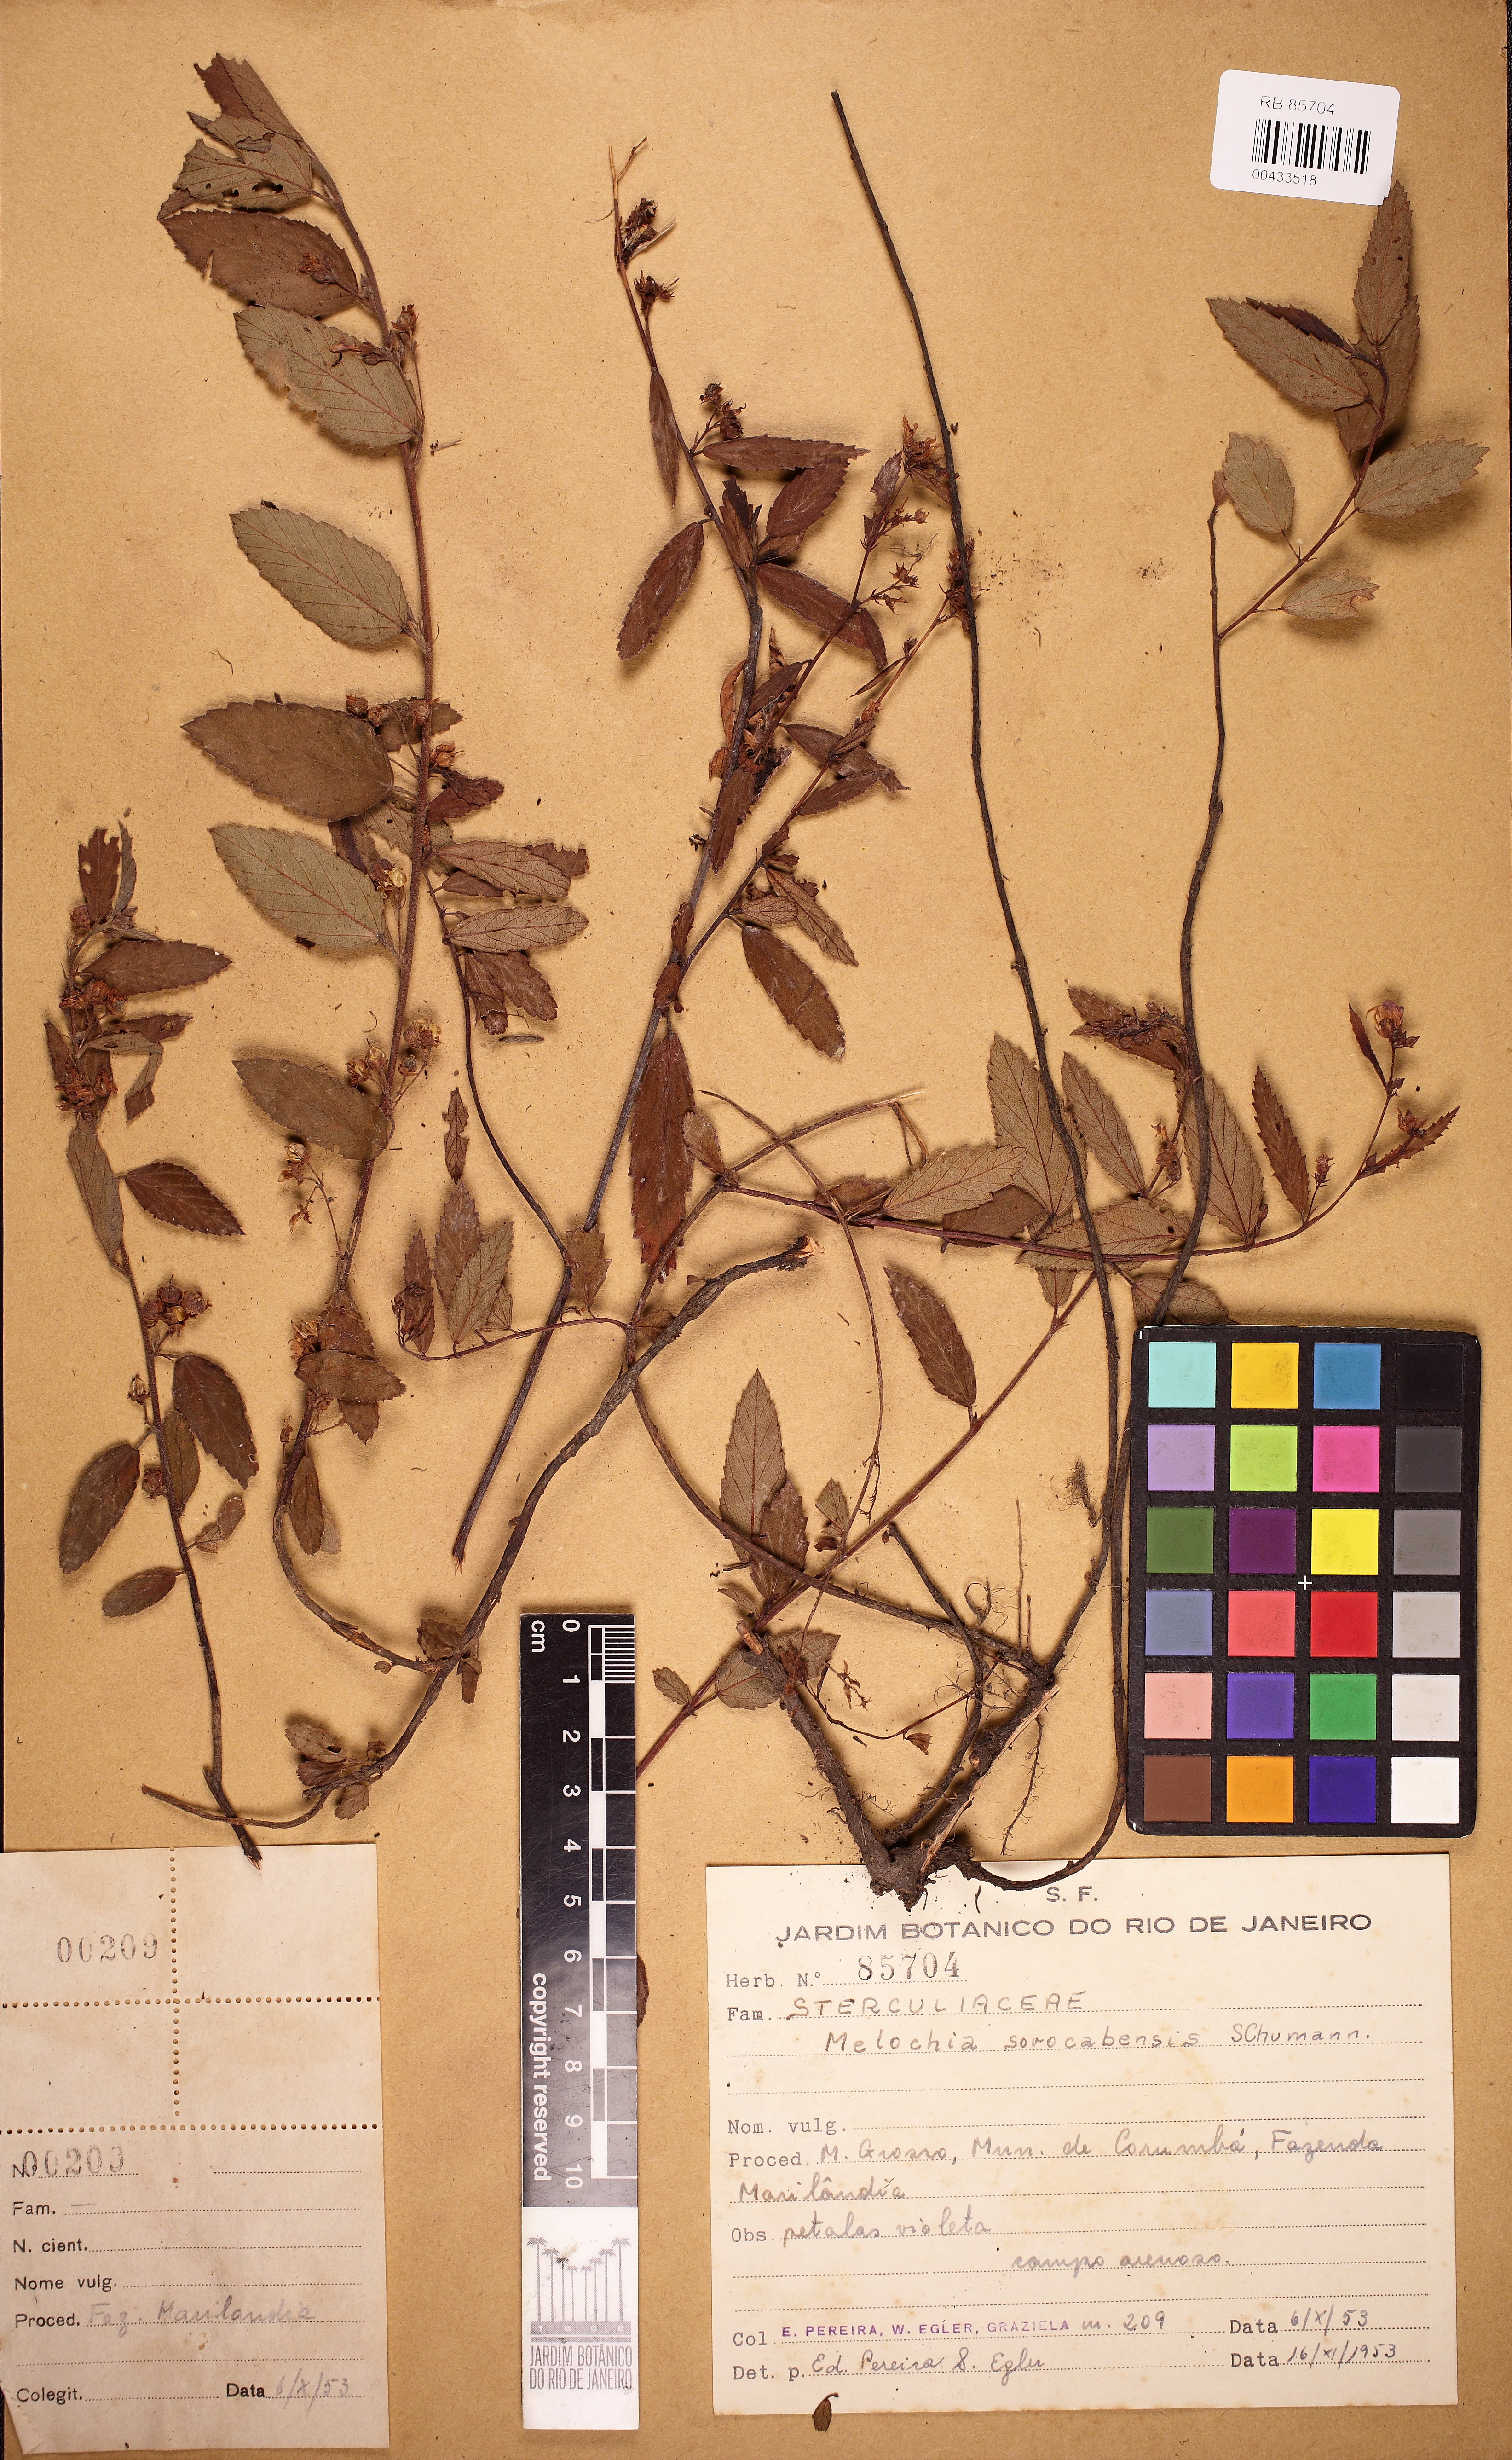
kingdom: Plantae
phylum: Tracheophyta
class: Magnoliopsida
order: Malvales
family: Malvaceae
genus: Melochia
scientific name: Melochia simplex
